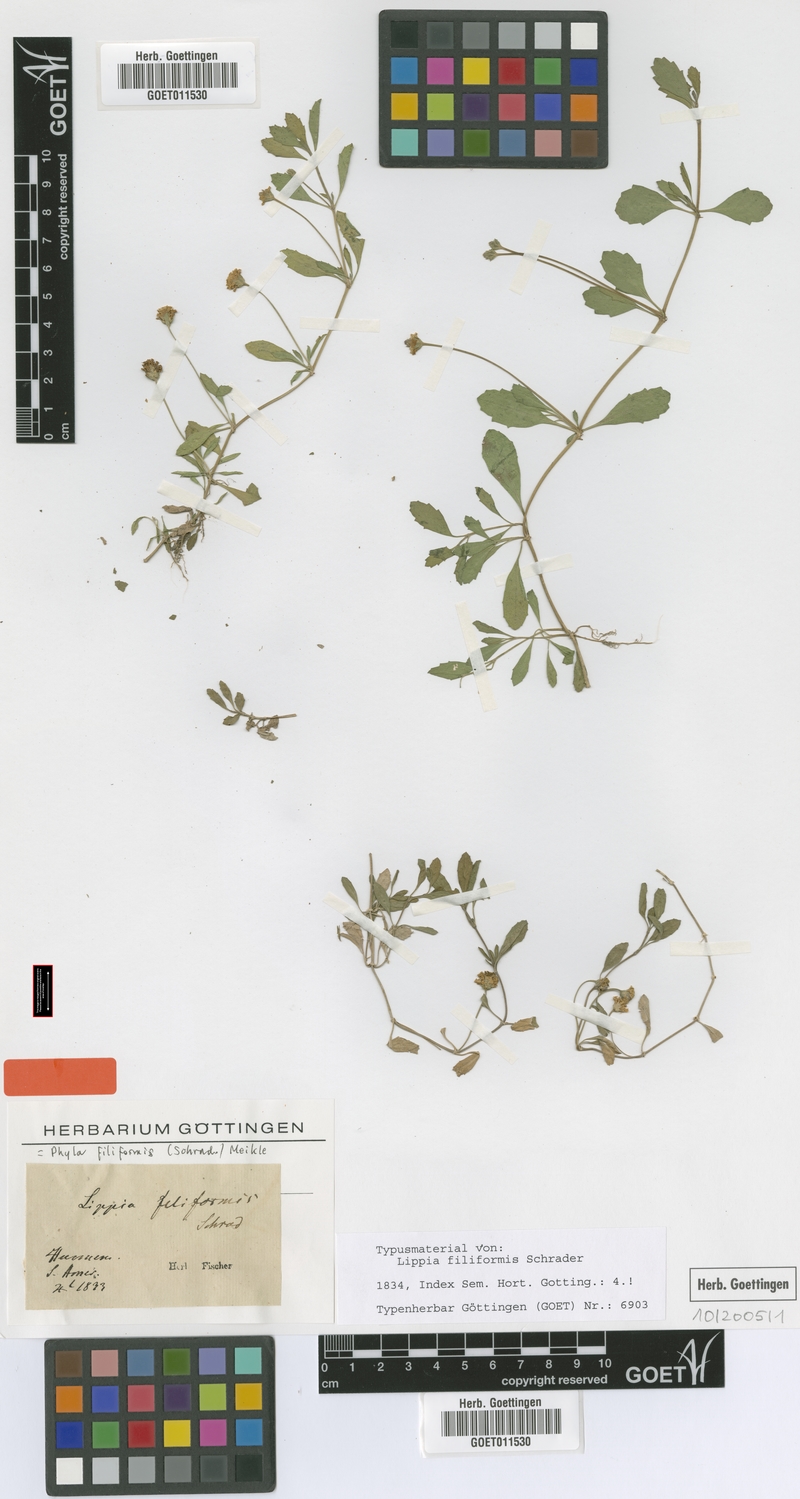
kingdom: Plantae
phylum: Tracheophyta
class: Magnoliopsida
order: Lamiales
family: Verbenaceae
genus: Phyla
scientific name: Phyla nodiflora
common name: Frogfruit
